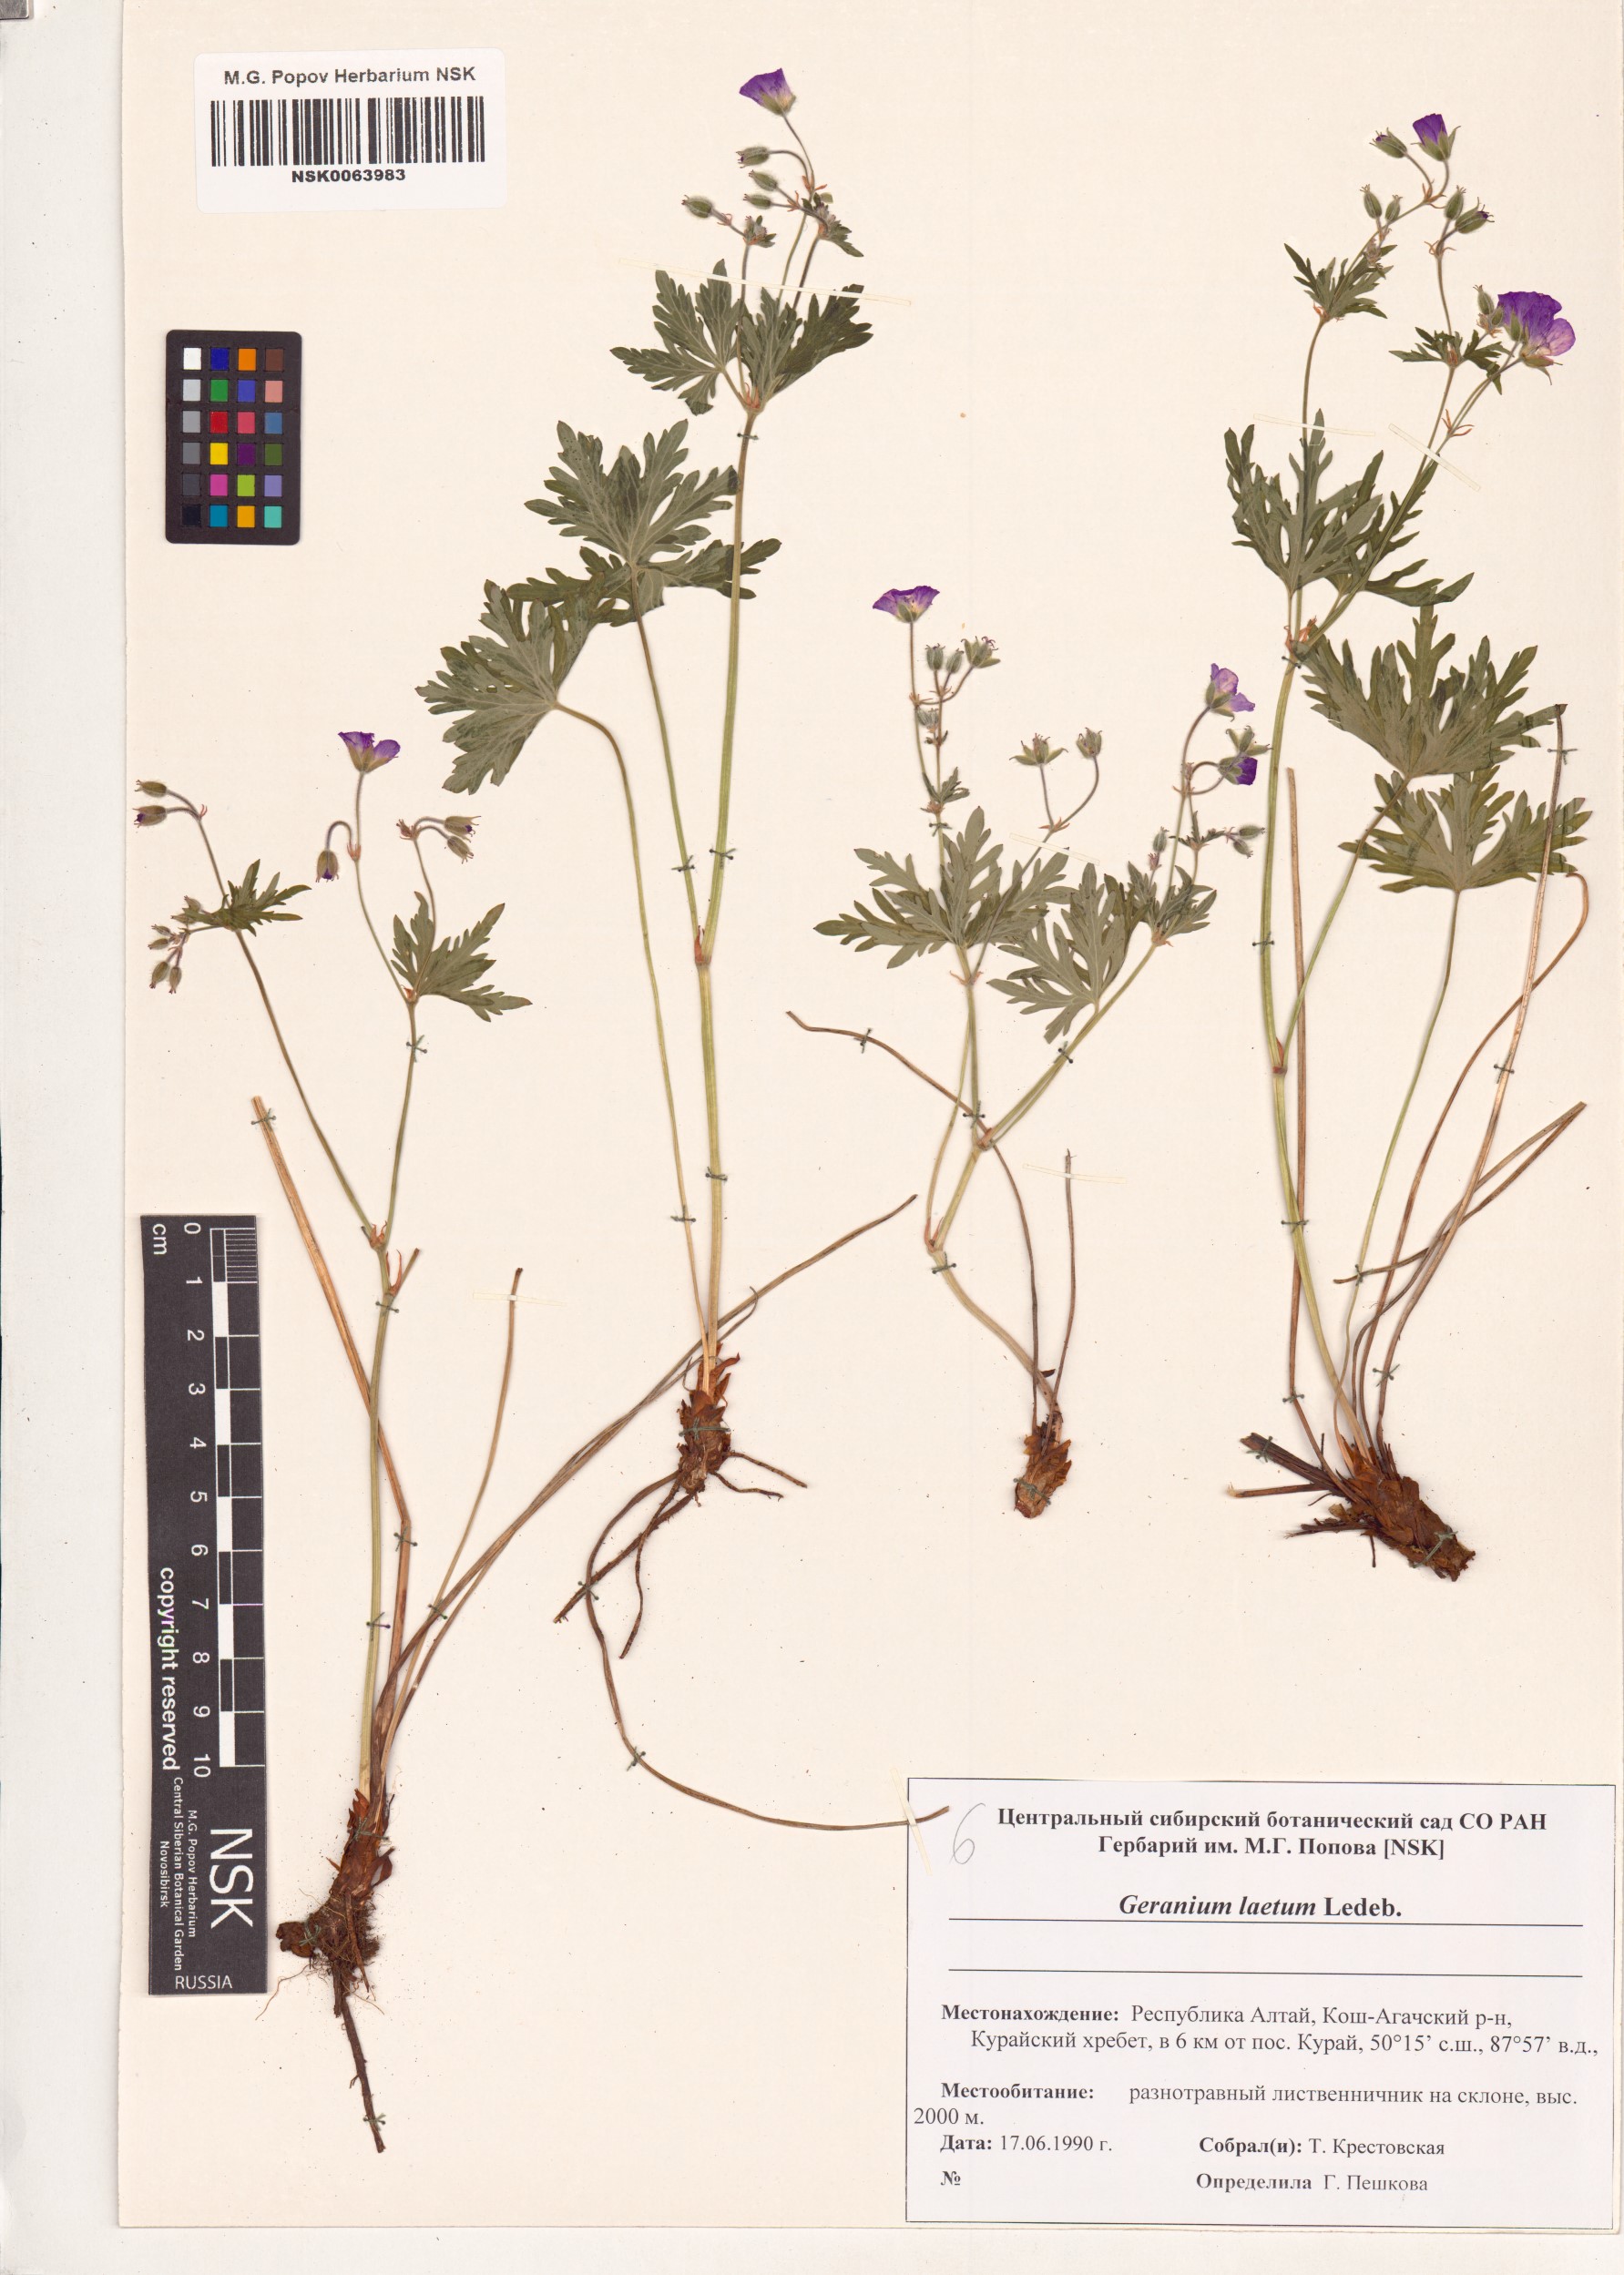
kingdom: Plantae
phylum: Tracheophyta
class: Magnoliopsida
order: Geraniales
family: Geraniaceae
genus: Geranium
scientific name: Geranium pseudosibiricum
